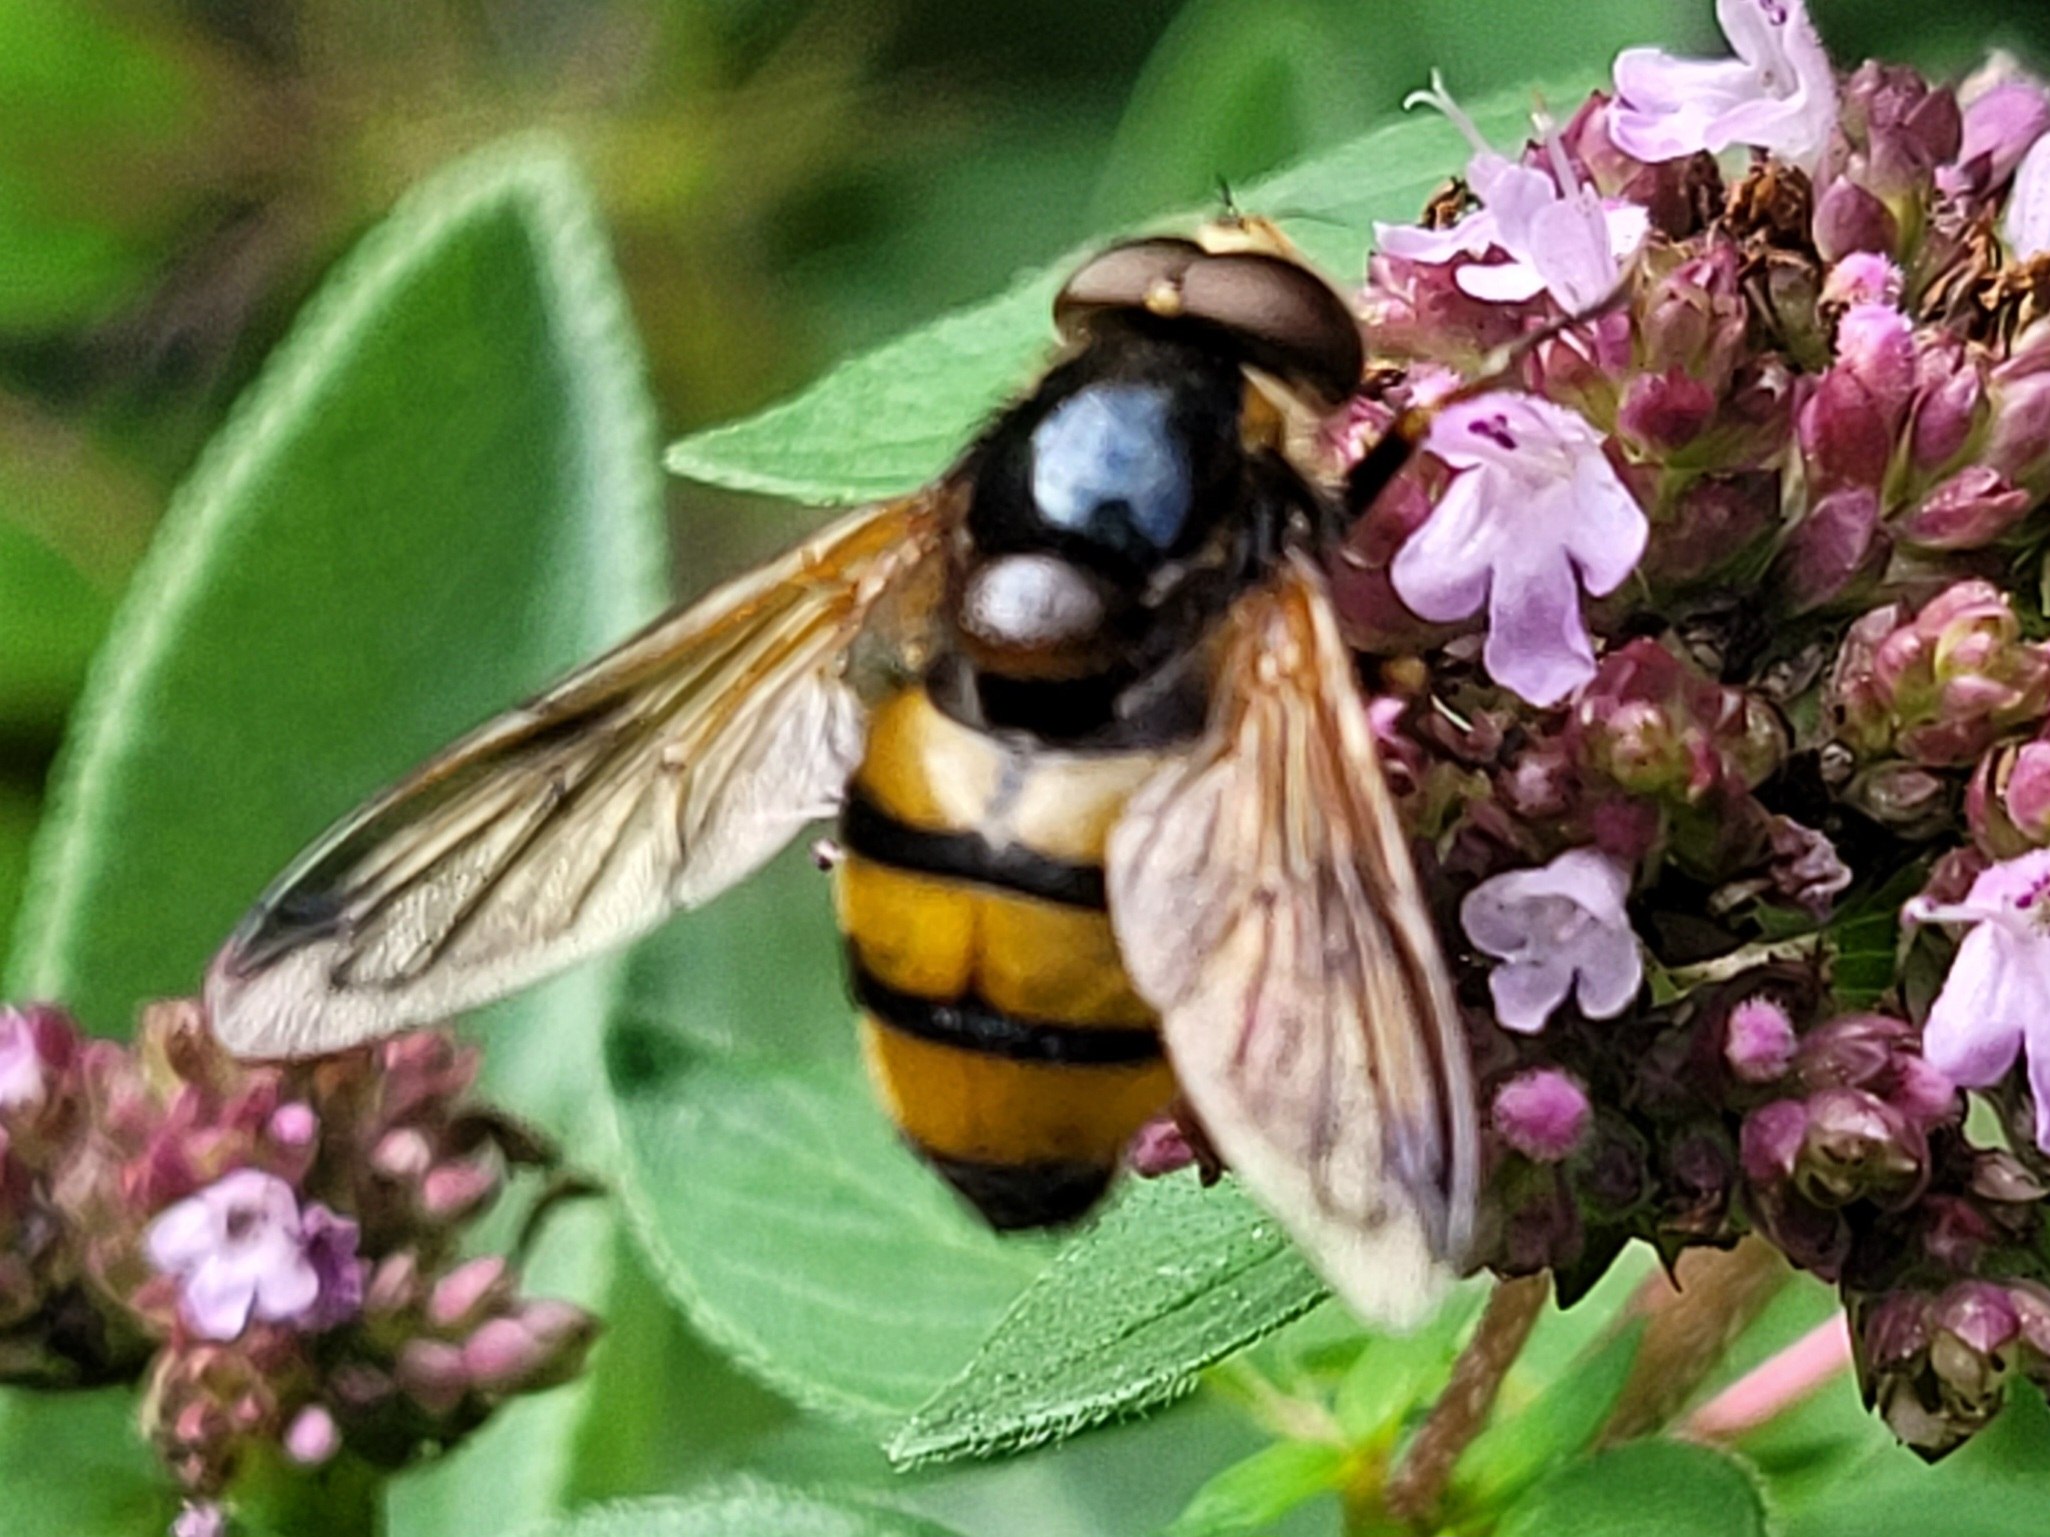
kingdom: Animalia
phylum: Arthropoda
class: Insecta
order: Diptera
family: Syrphidae
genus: Volucella
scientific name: Volucella inanis
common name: Gul humlesvirreflue
